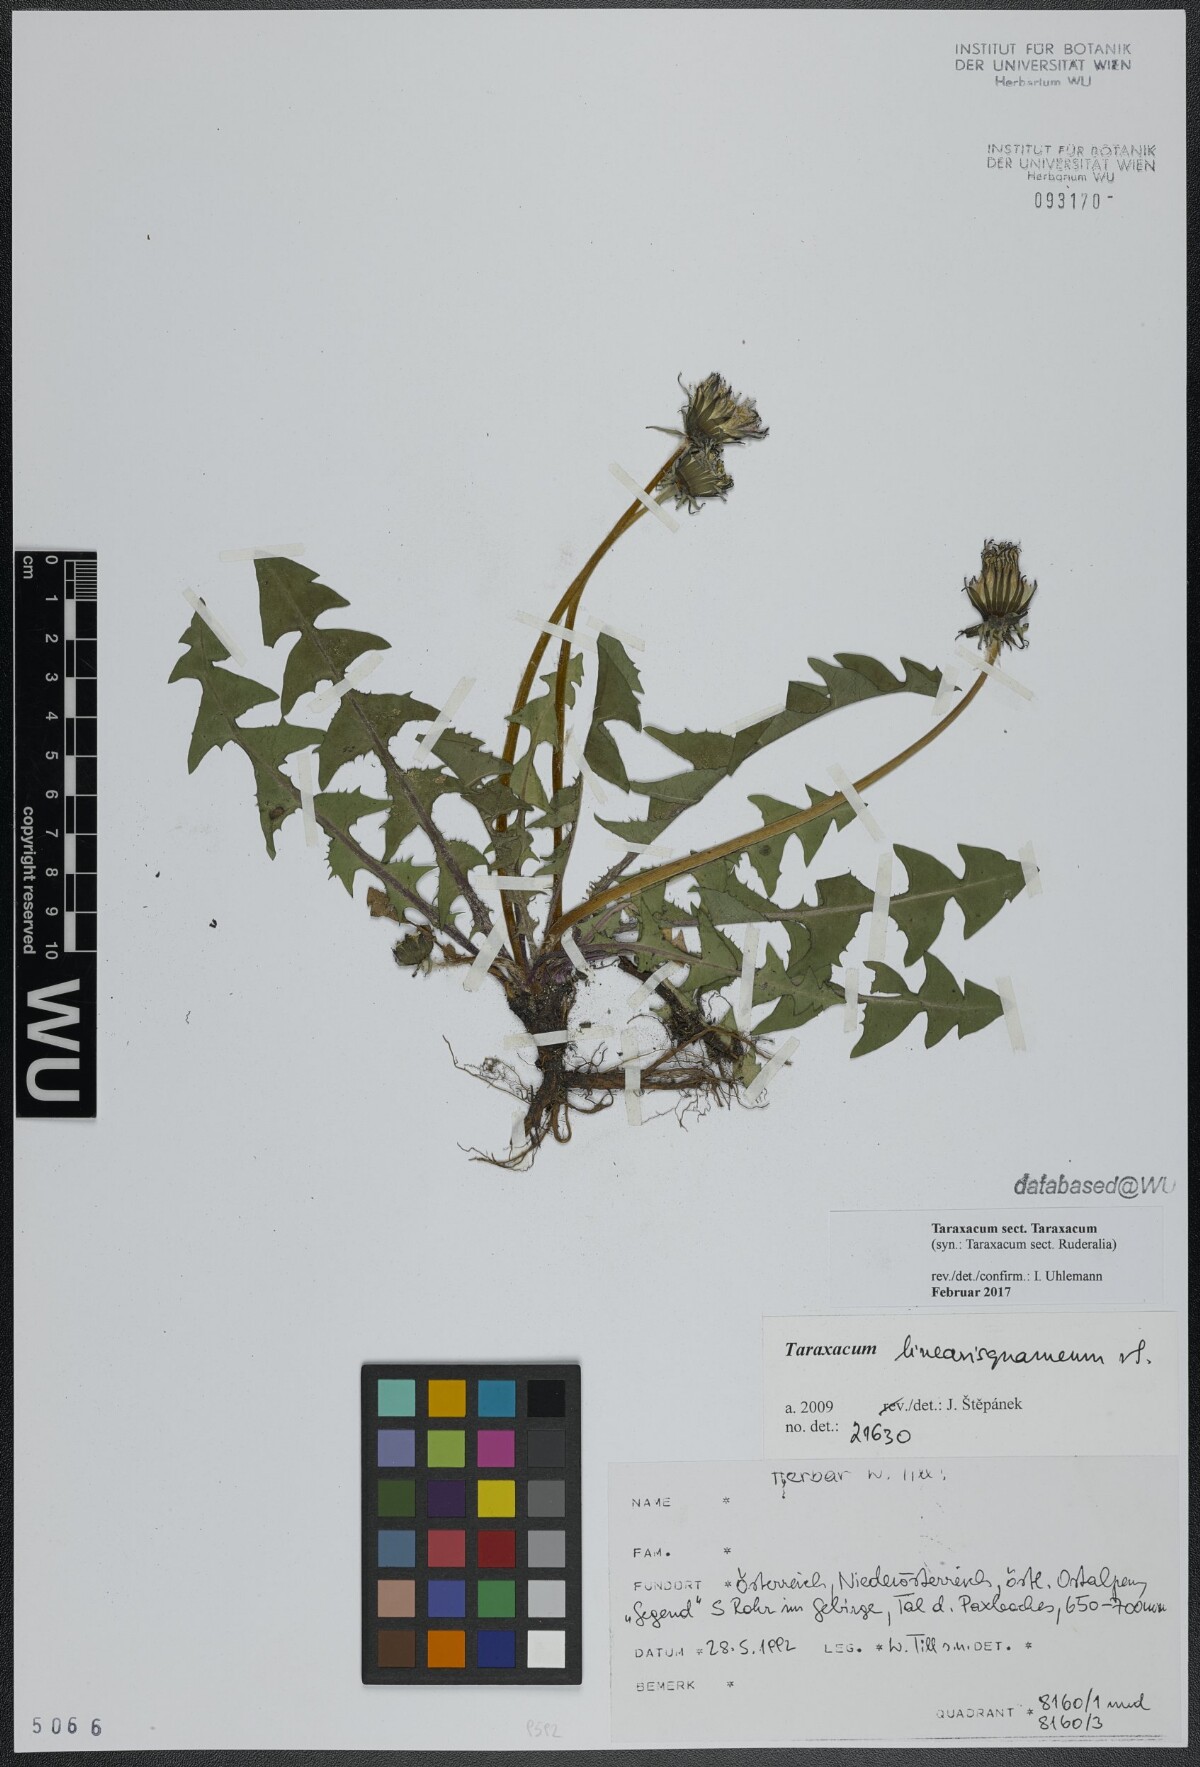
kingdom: Plantae
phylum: Tracheophyta
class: Magnoliopsida
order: Asterales
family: Asteraceae
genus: Taraxacum
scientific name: Taraxacum
